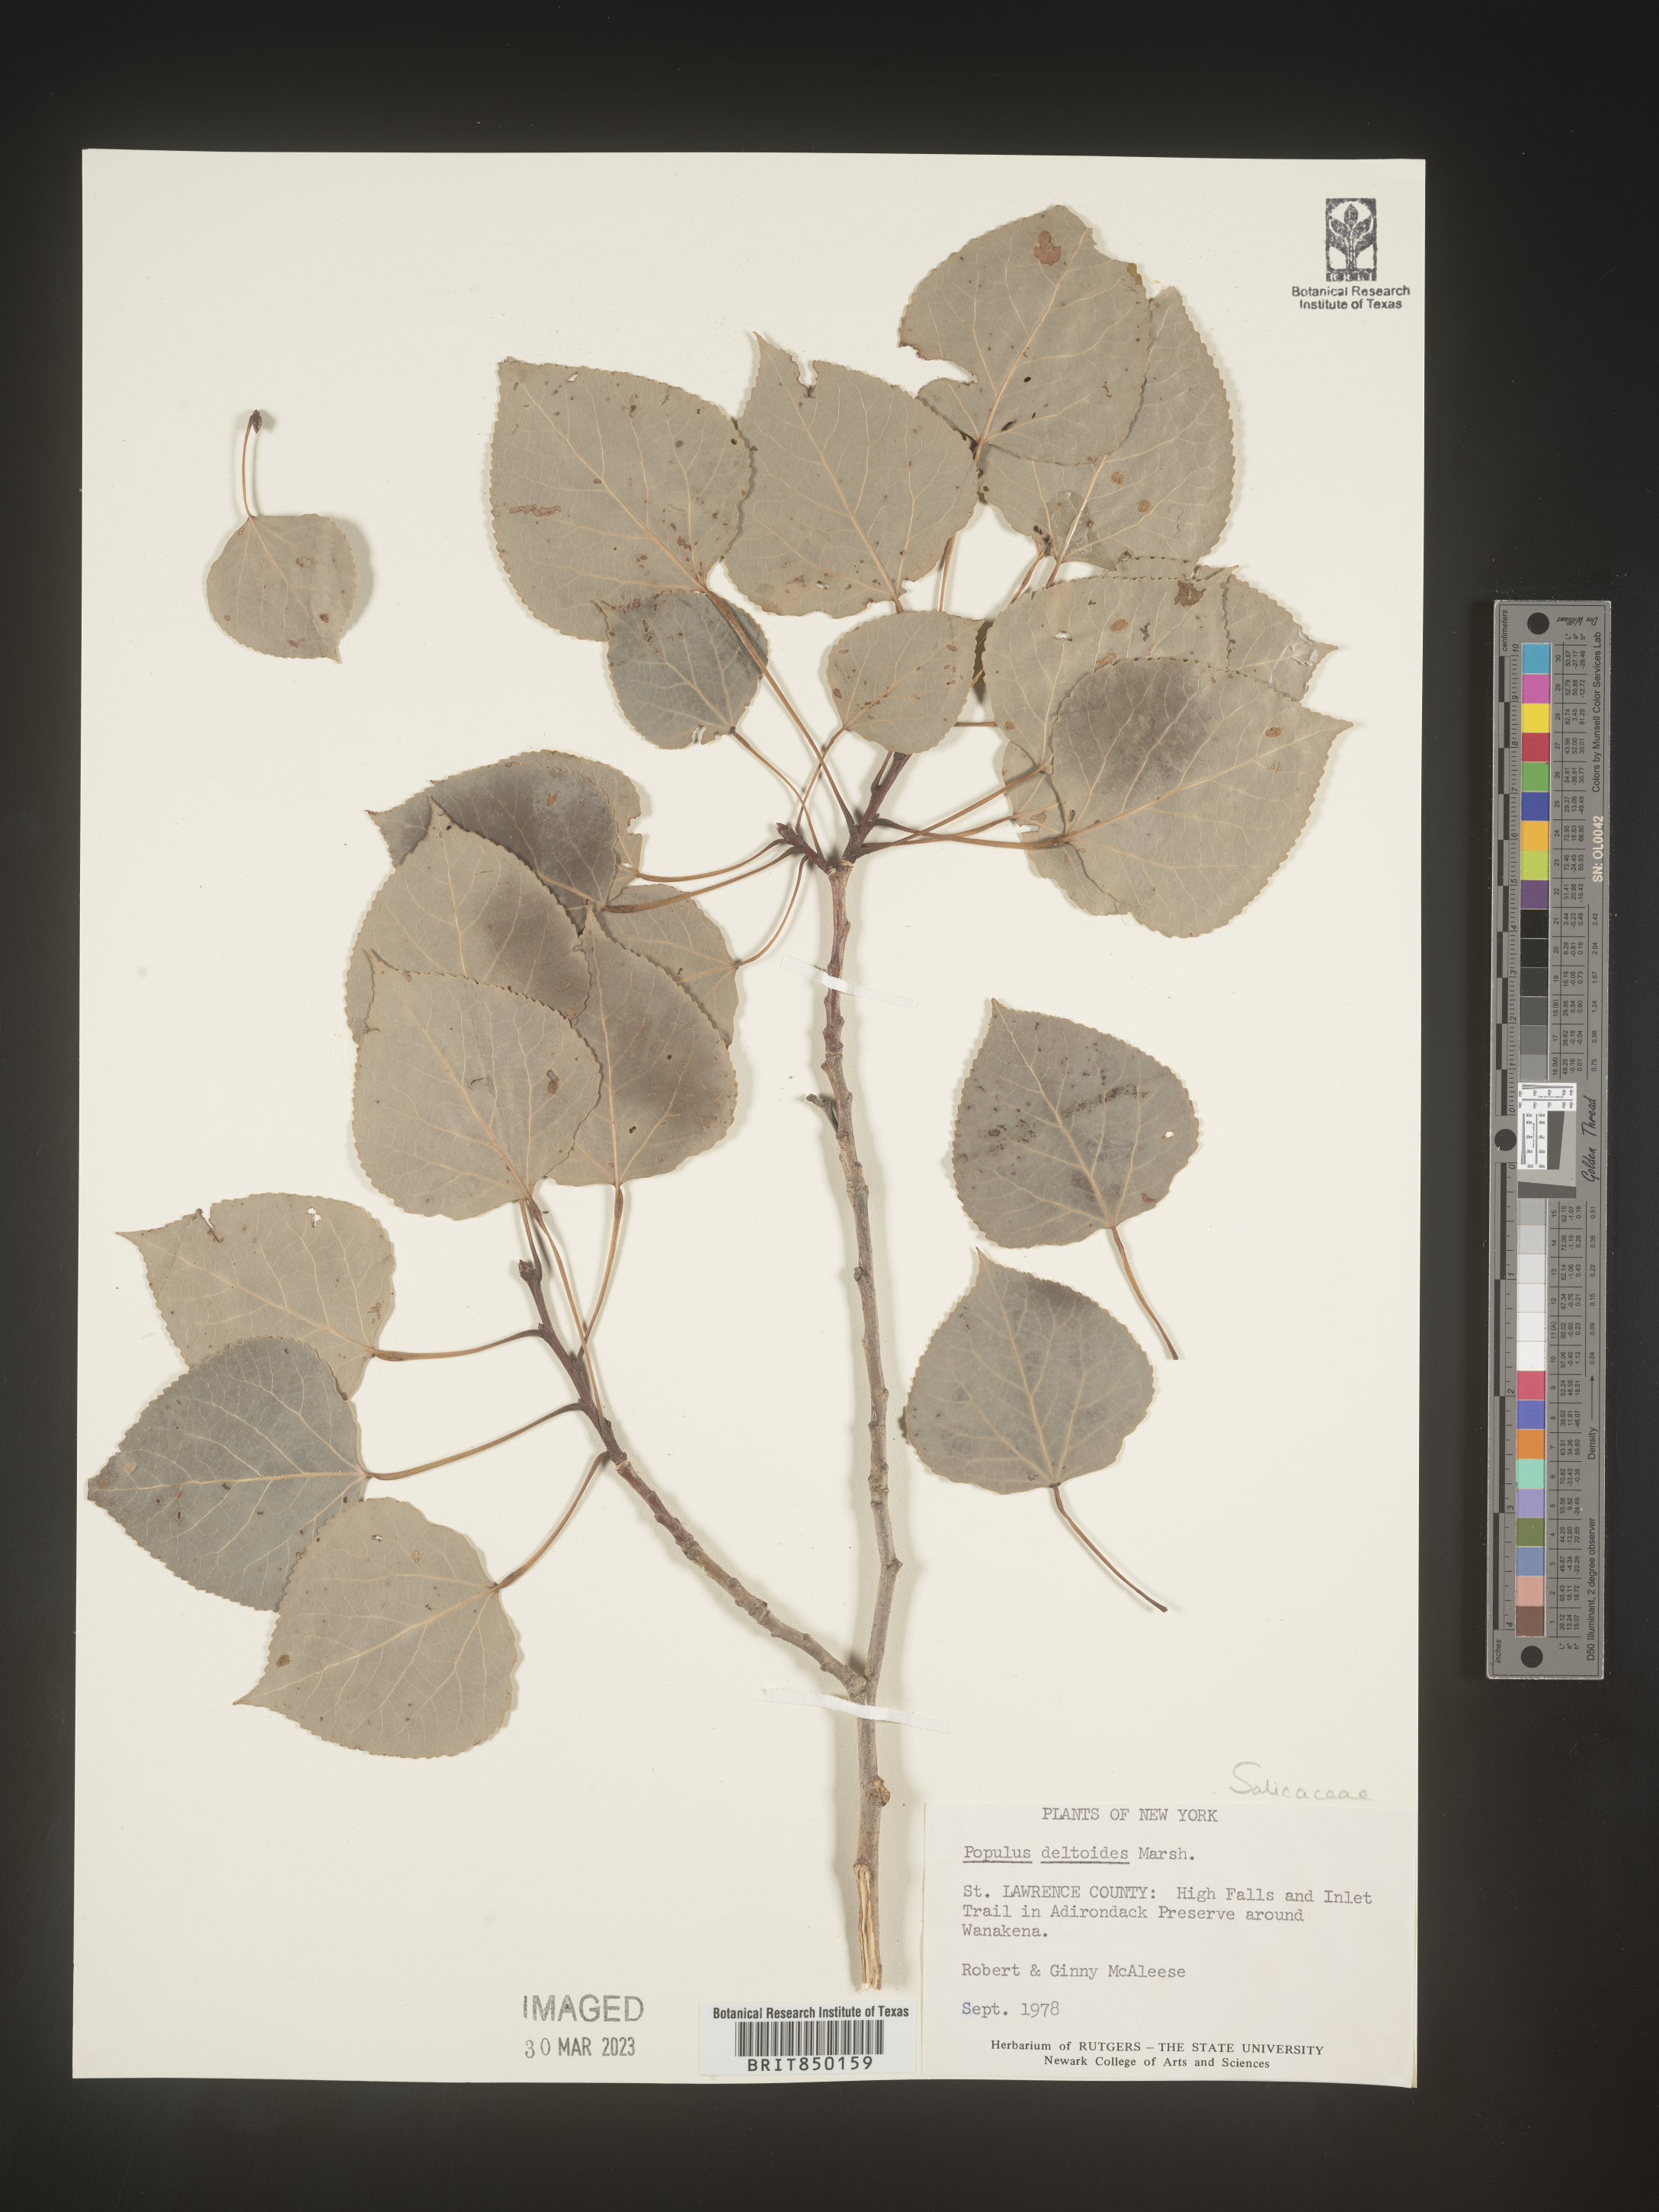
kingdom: Plantae
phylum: Tracheophyta
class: Magnoliopsida
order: Malpighiales
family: Salicaceae
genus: Populus
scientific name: Populus deltoides
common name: Eastern cottonwood
